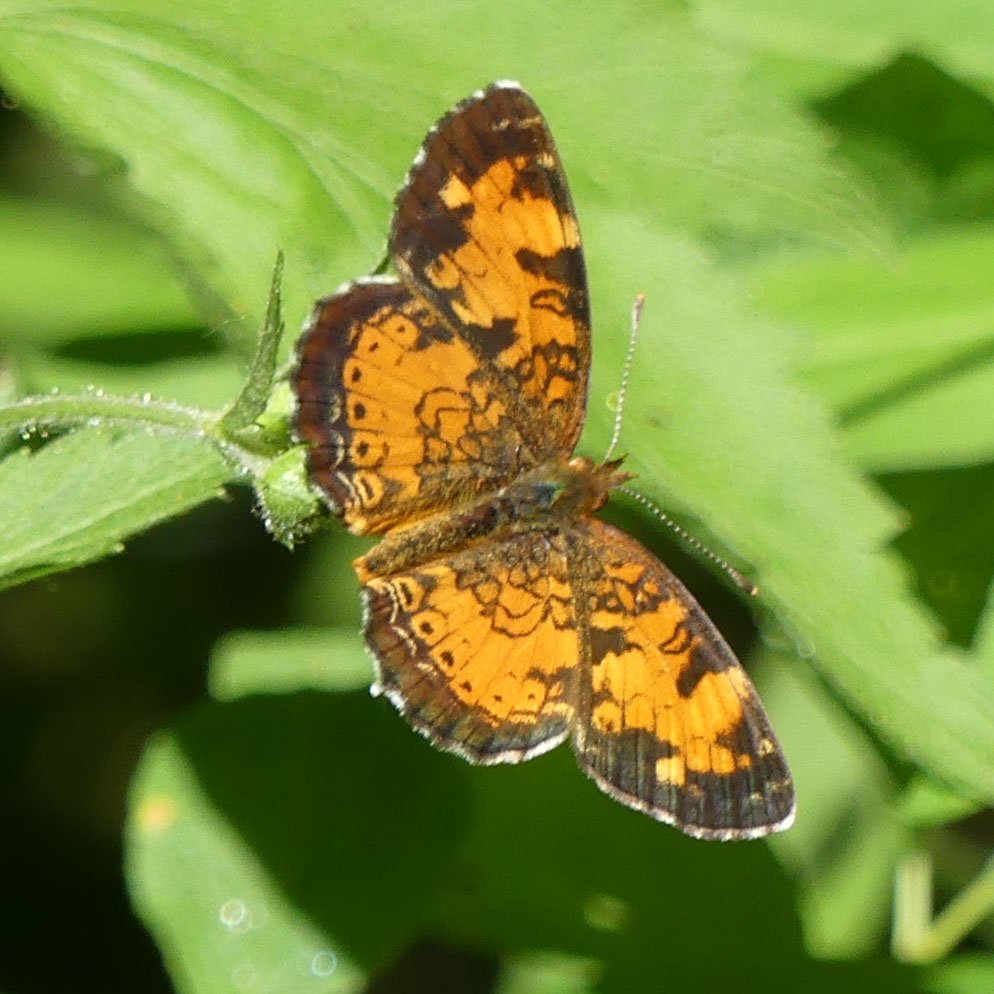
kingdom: Animalia
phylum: Arthropoda
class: Insecta
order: Lepidoptera
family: Nymphalidae
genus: Phyciodes
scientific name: Phyciodes tharos
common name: Northern Crescent
